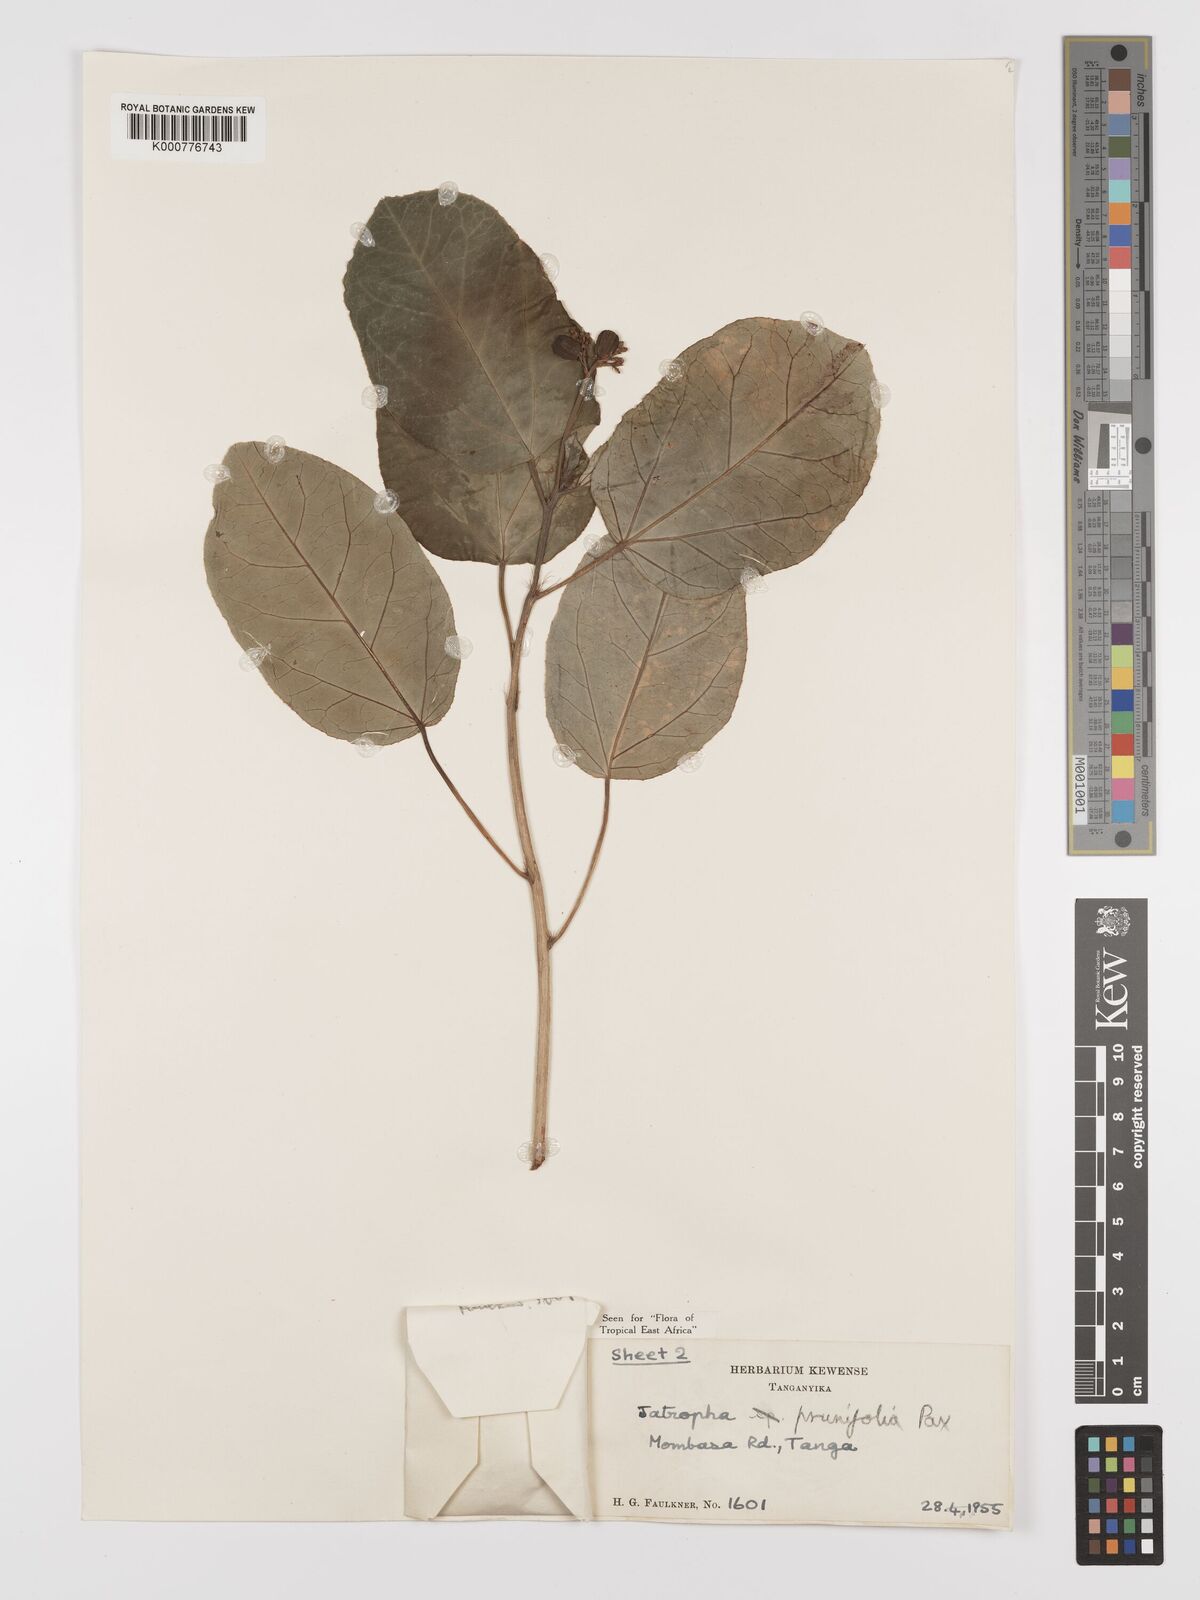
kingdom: Plantae
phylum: Tracheophyta
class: Magnoliopsida
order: Malpighiales
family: Euphorbiaceae
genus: Jatropha
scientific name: Jatropha
